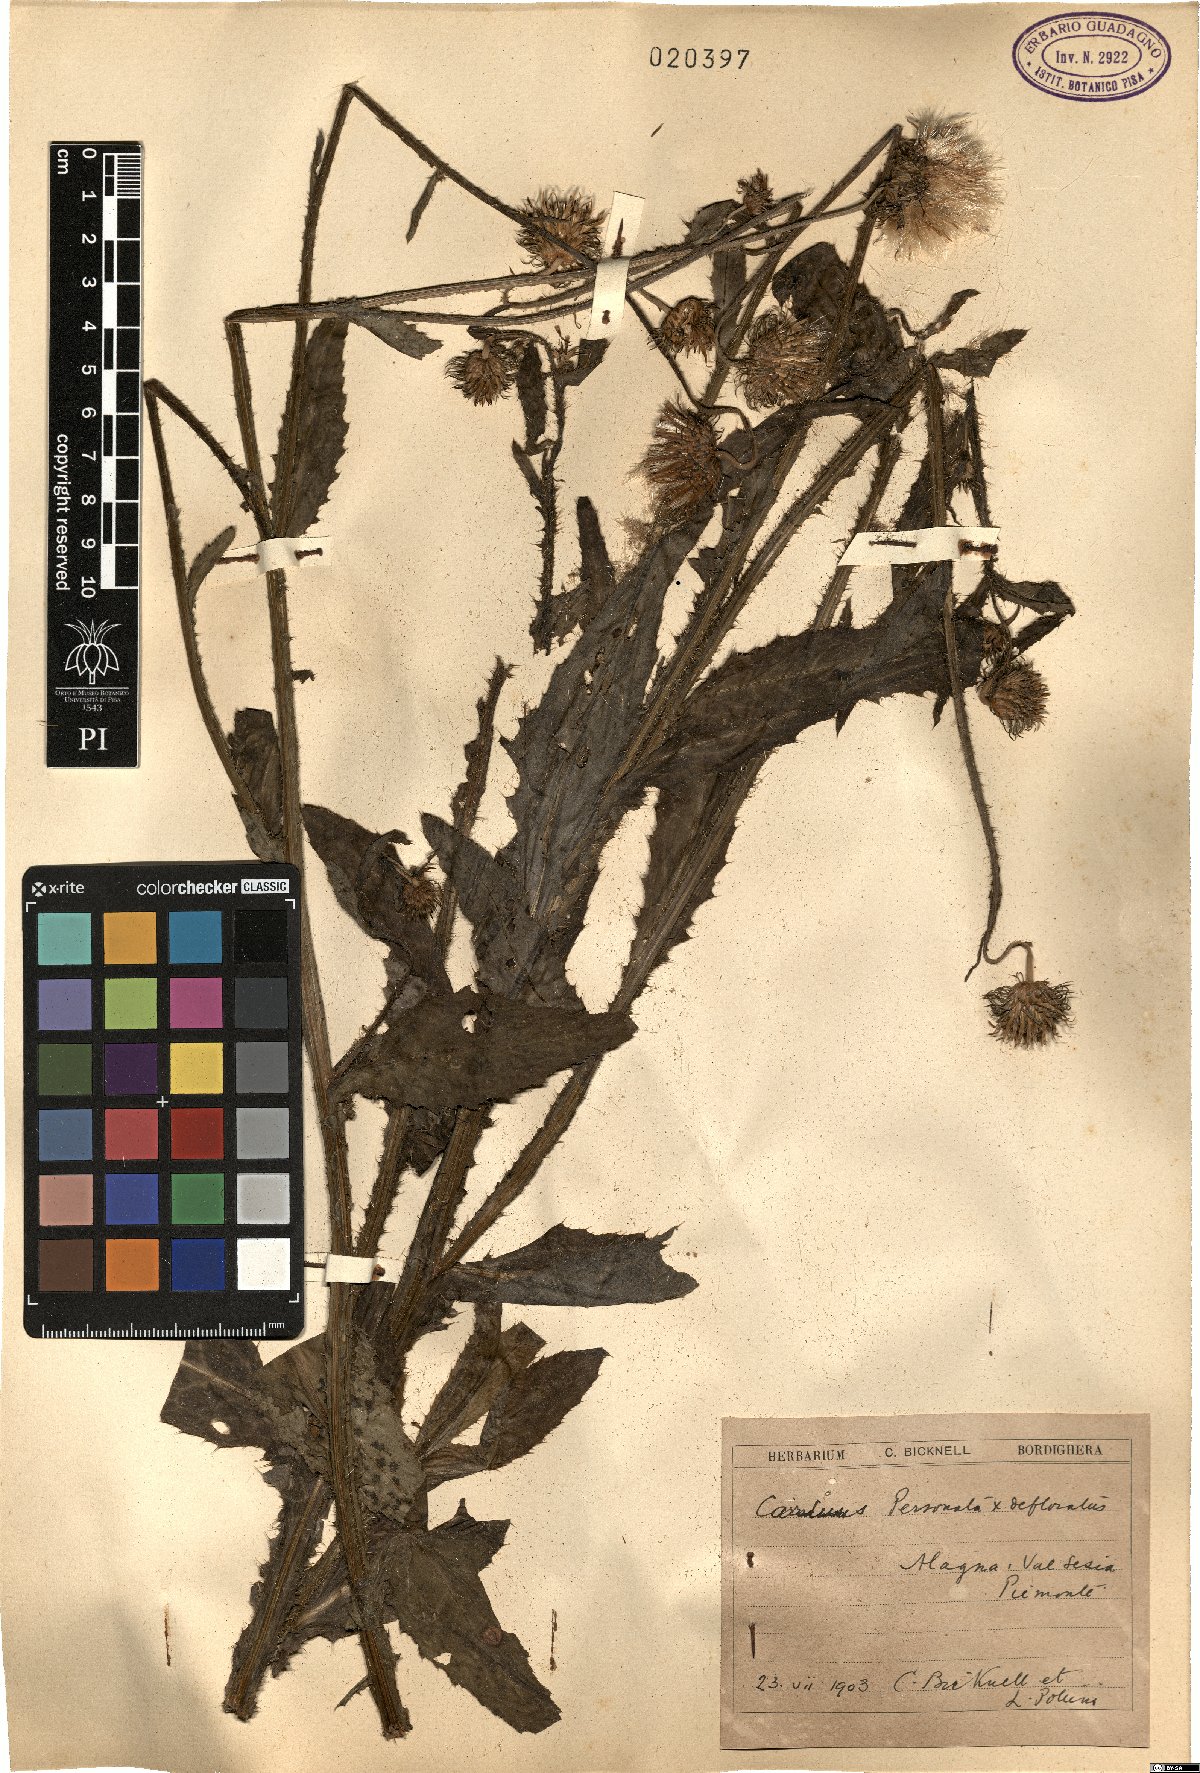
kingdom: Plantae
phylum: Tracheophyta
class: Magnoliopsida
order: Asterales
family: Asteraceae
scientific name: Asteraceae
